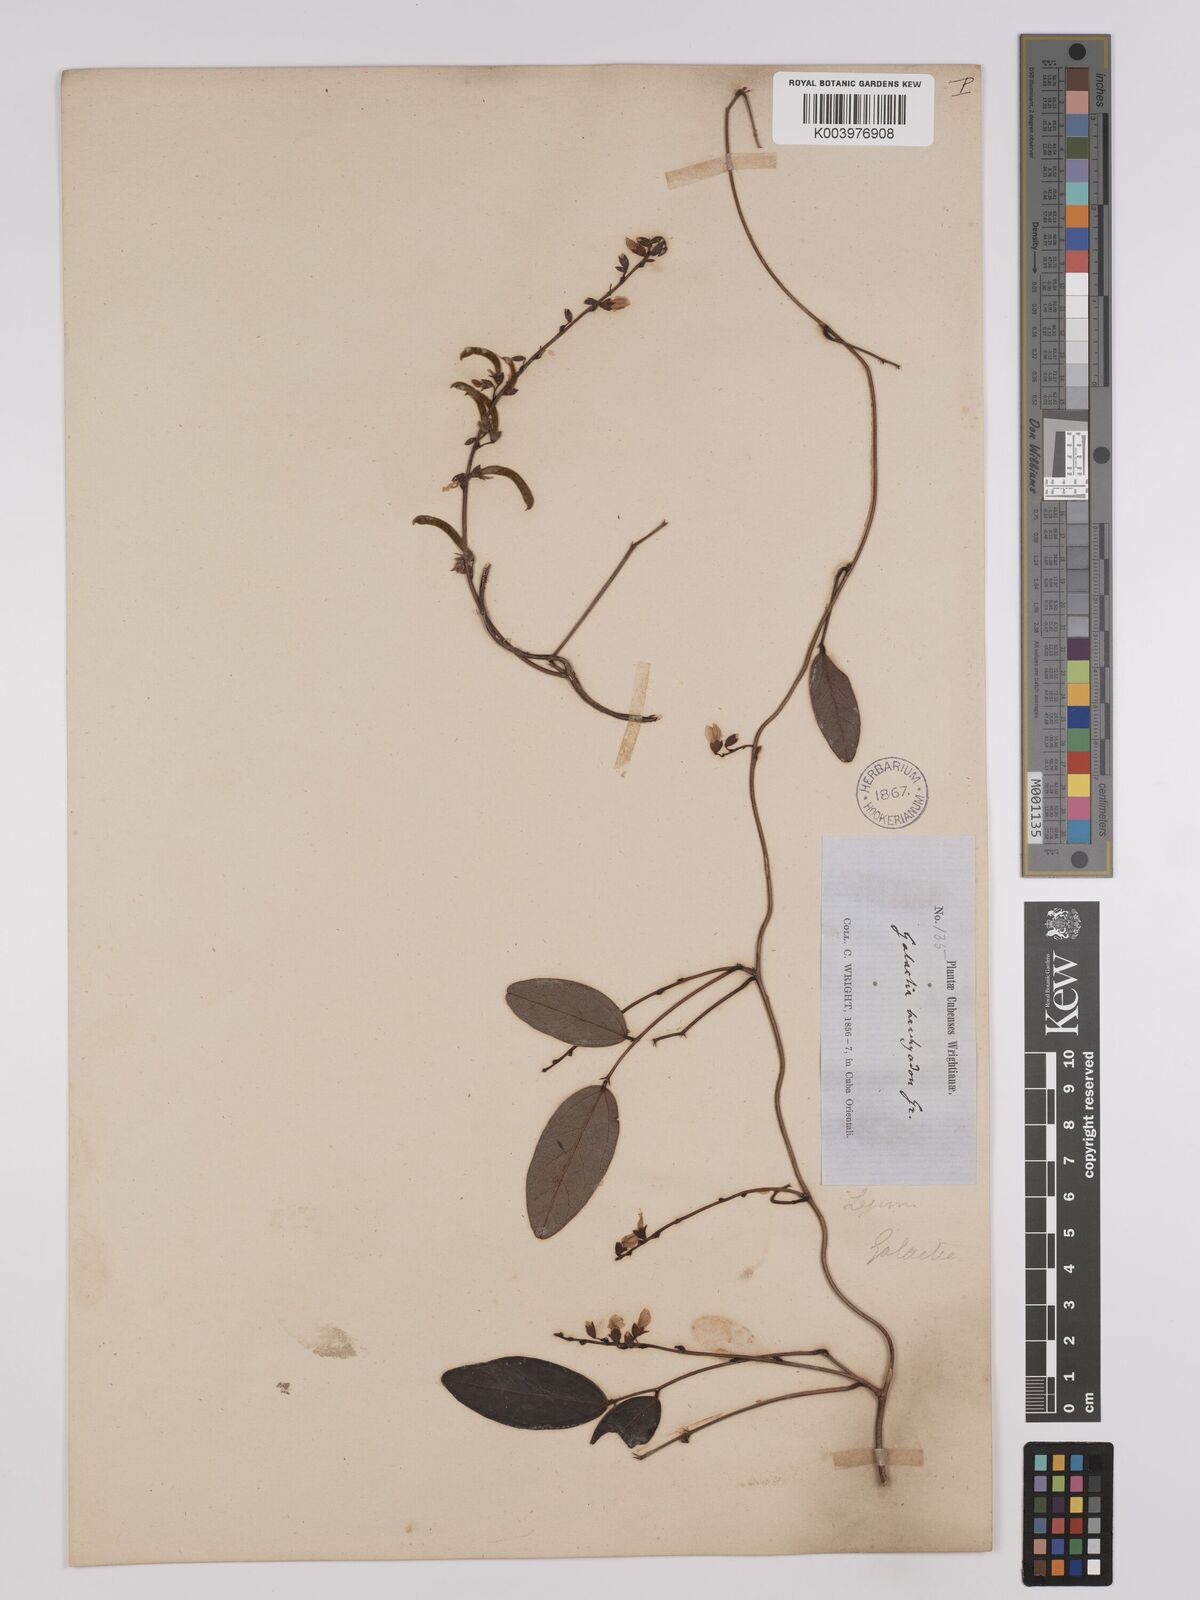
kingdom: Plantae
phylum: Tracheophyta
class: Magnoliopsida
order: Fabales
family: Fabaceae
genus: Galactia
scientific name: Galactia brachyodon
